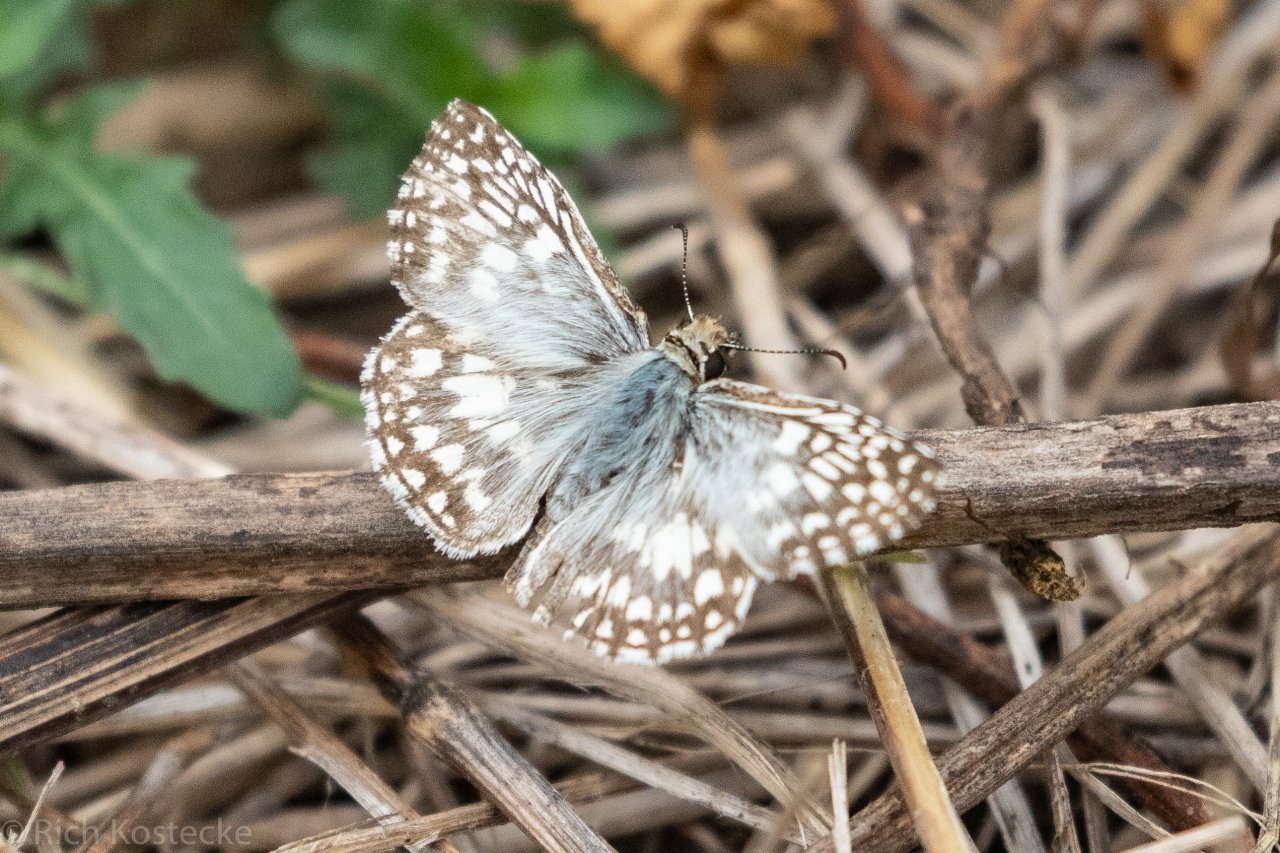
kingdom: Animalia
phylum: Arthropoda
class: Insecta
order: Lepidoptera
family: Hesperiidae
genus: Pyrgus
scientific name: Pyrgus oileus
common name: Tropical Checkered-Skipper
